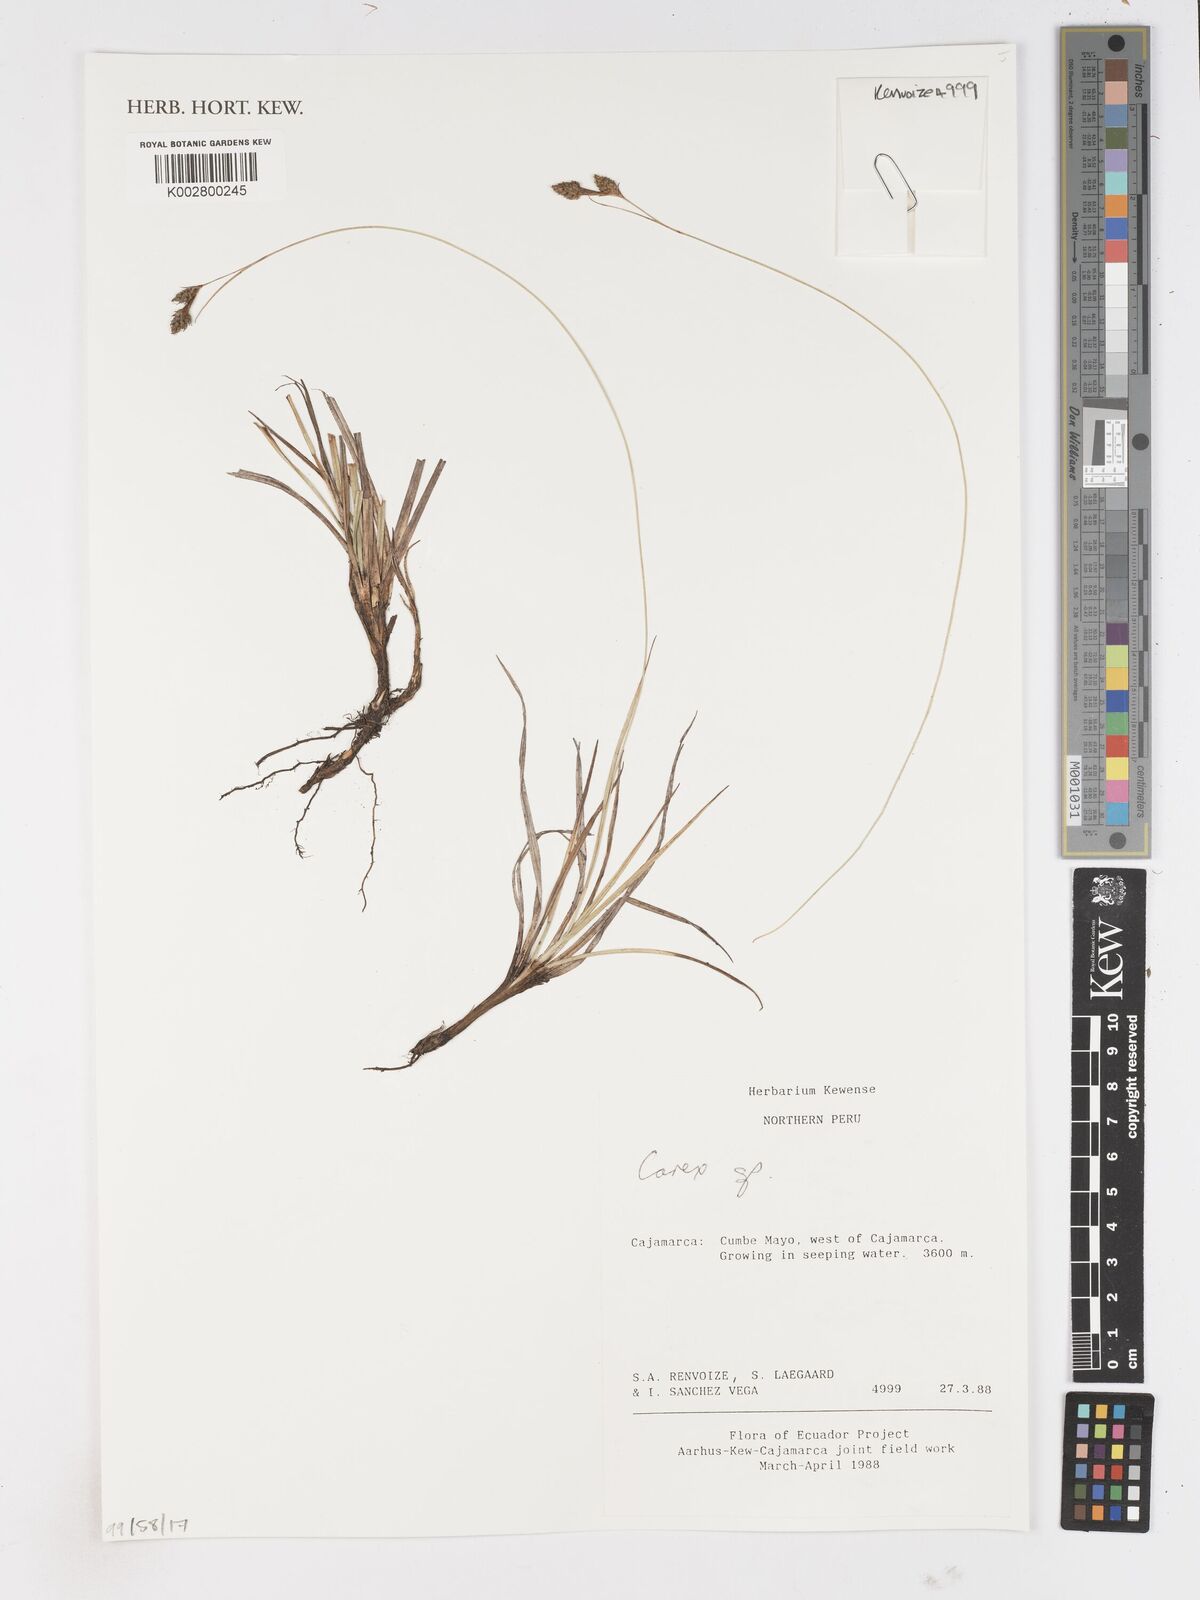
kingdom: Plantae
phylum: Tracheophyta
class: Liliopsida
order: Poales
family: Cyperaceae
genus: Carex
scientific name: Carex
